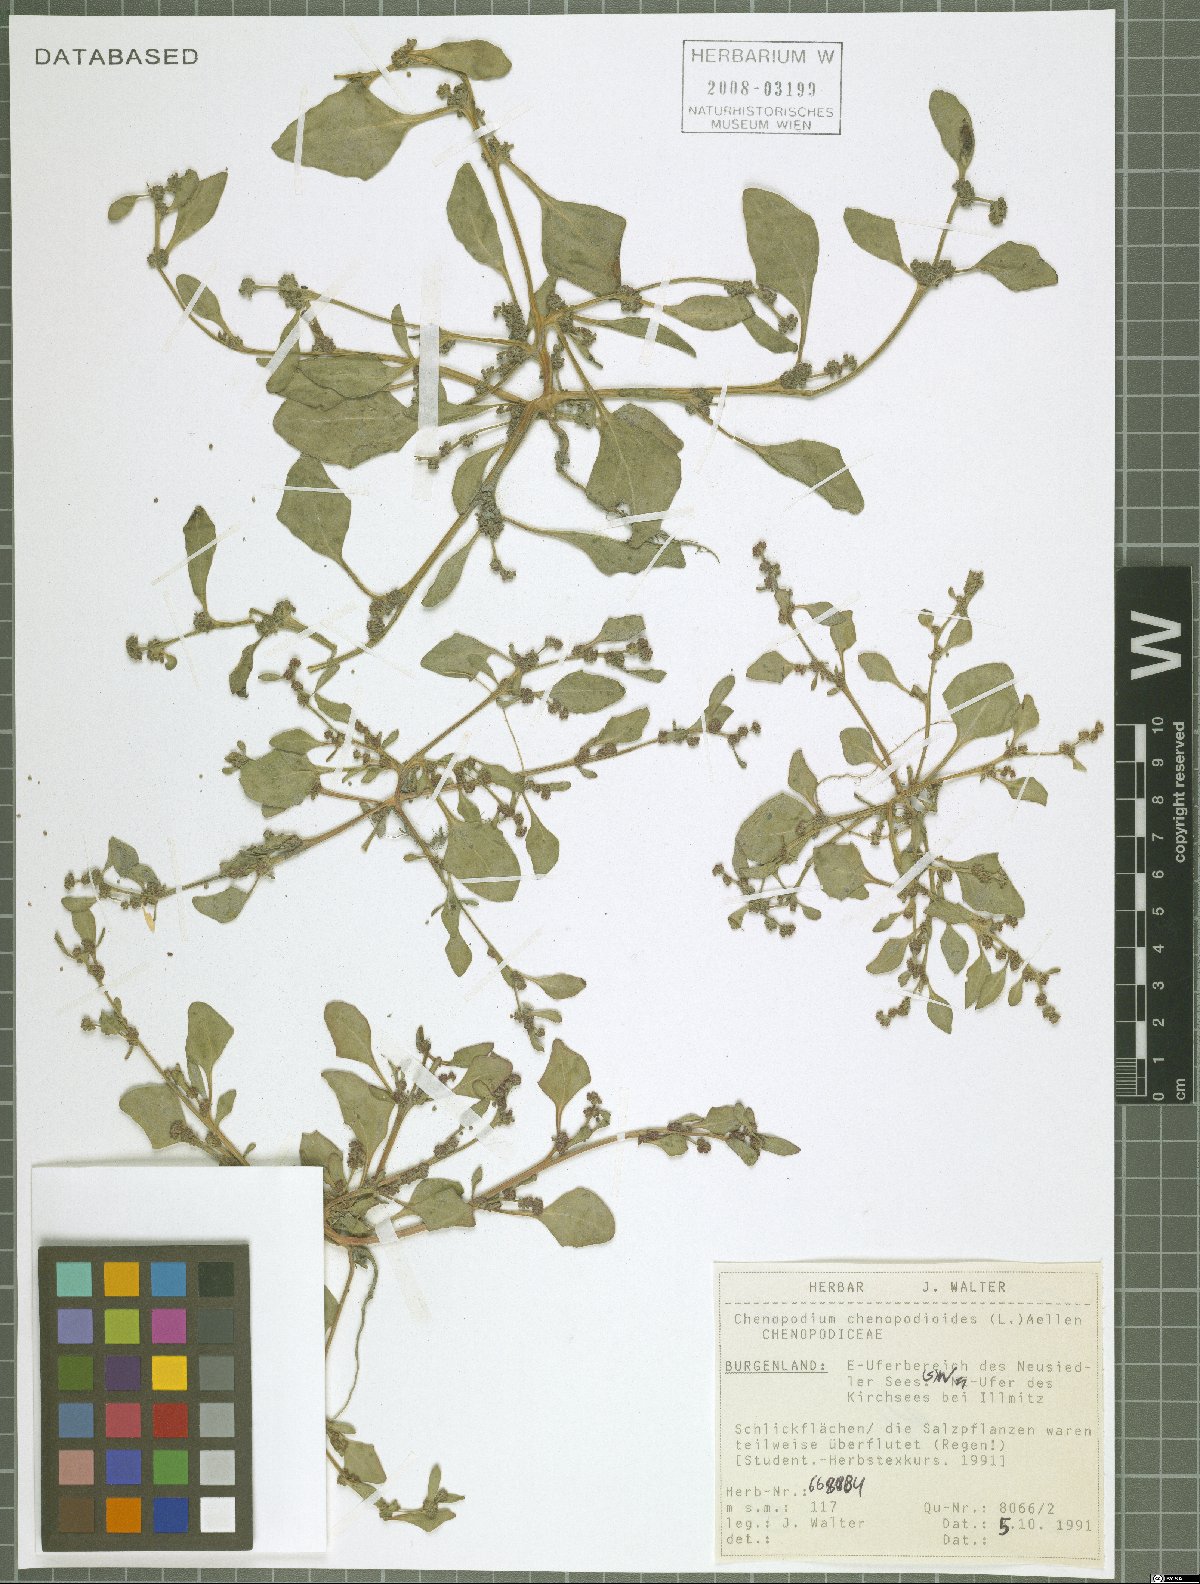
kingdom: Plantae
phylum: Tracheophyta
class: Magnoliopsida
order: Caryophyllales
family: Amaranthaceae
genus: Oxybasis
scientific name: Oxybasis chenopodioides
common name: Saltmarsh goosefoot
